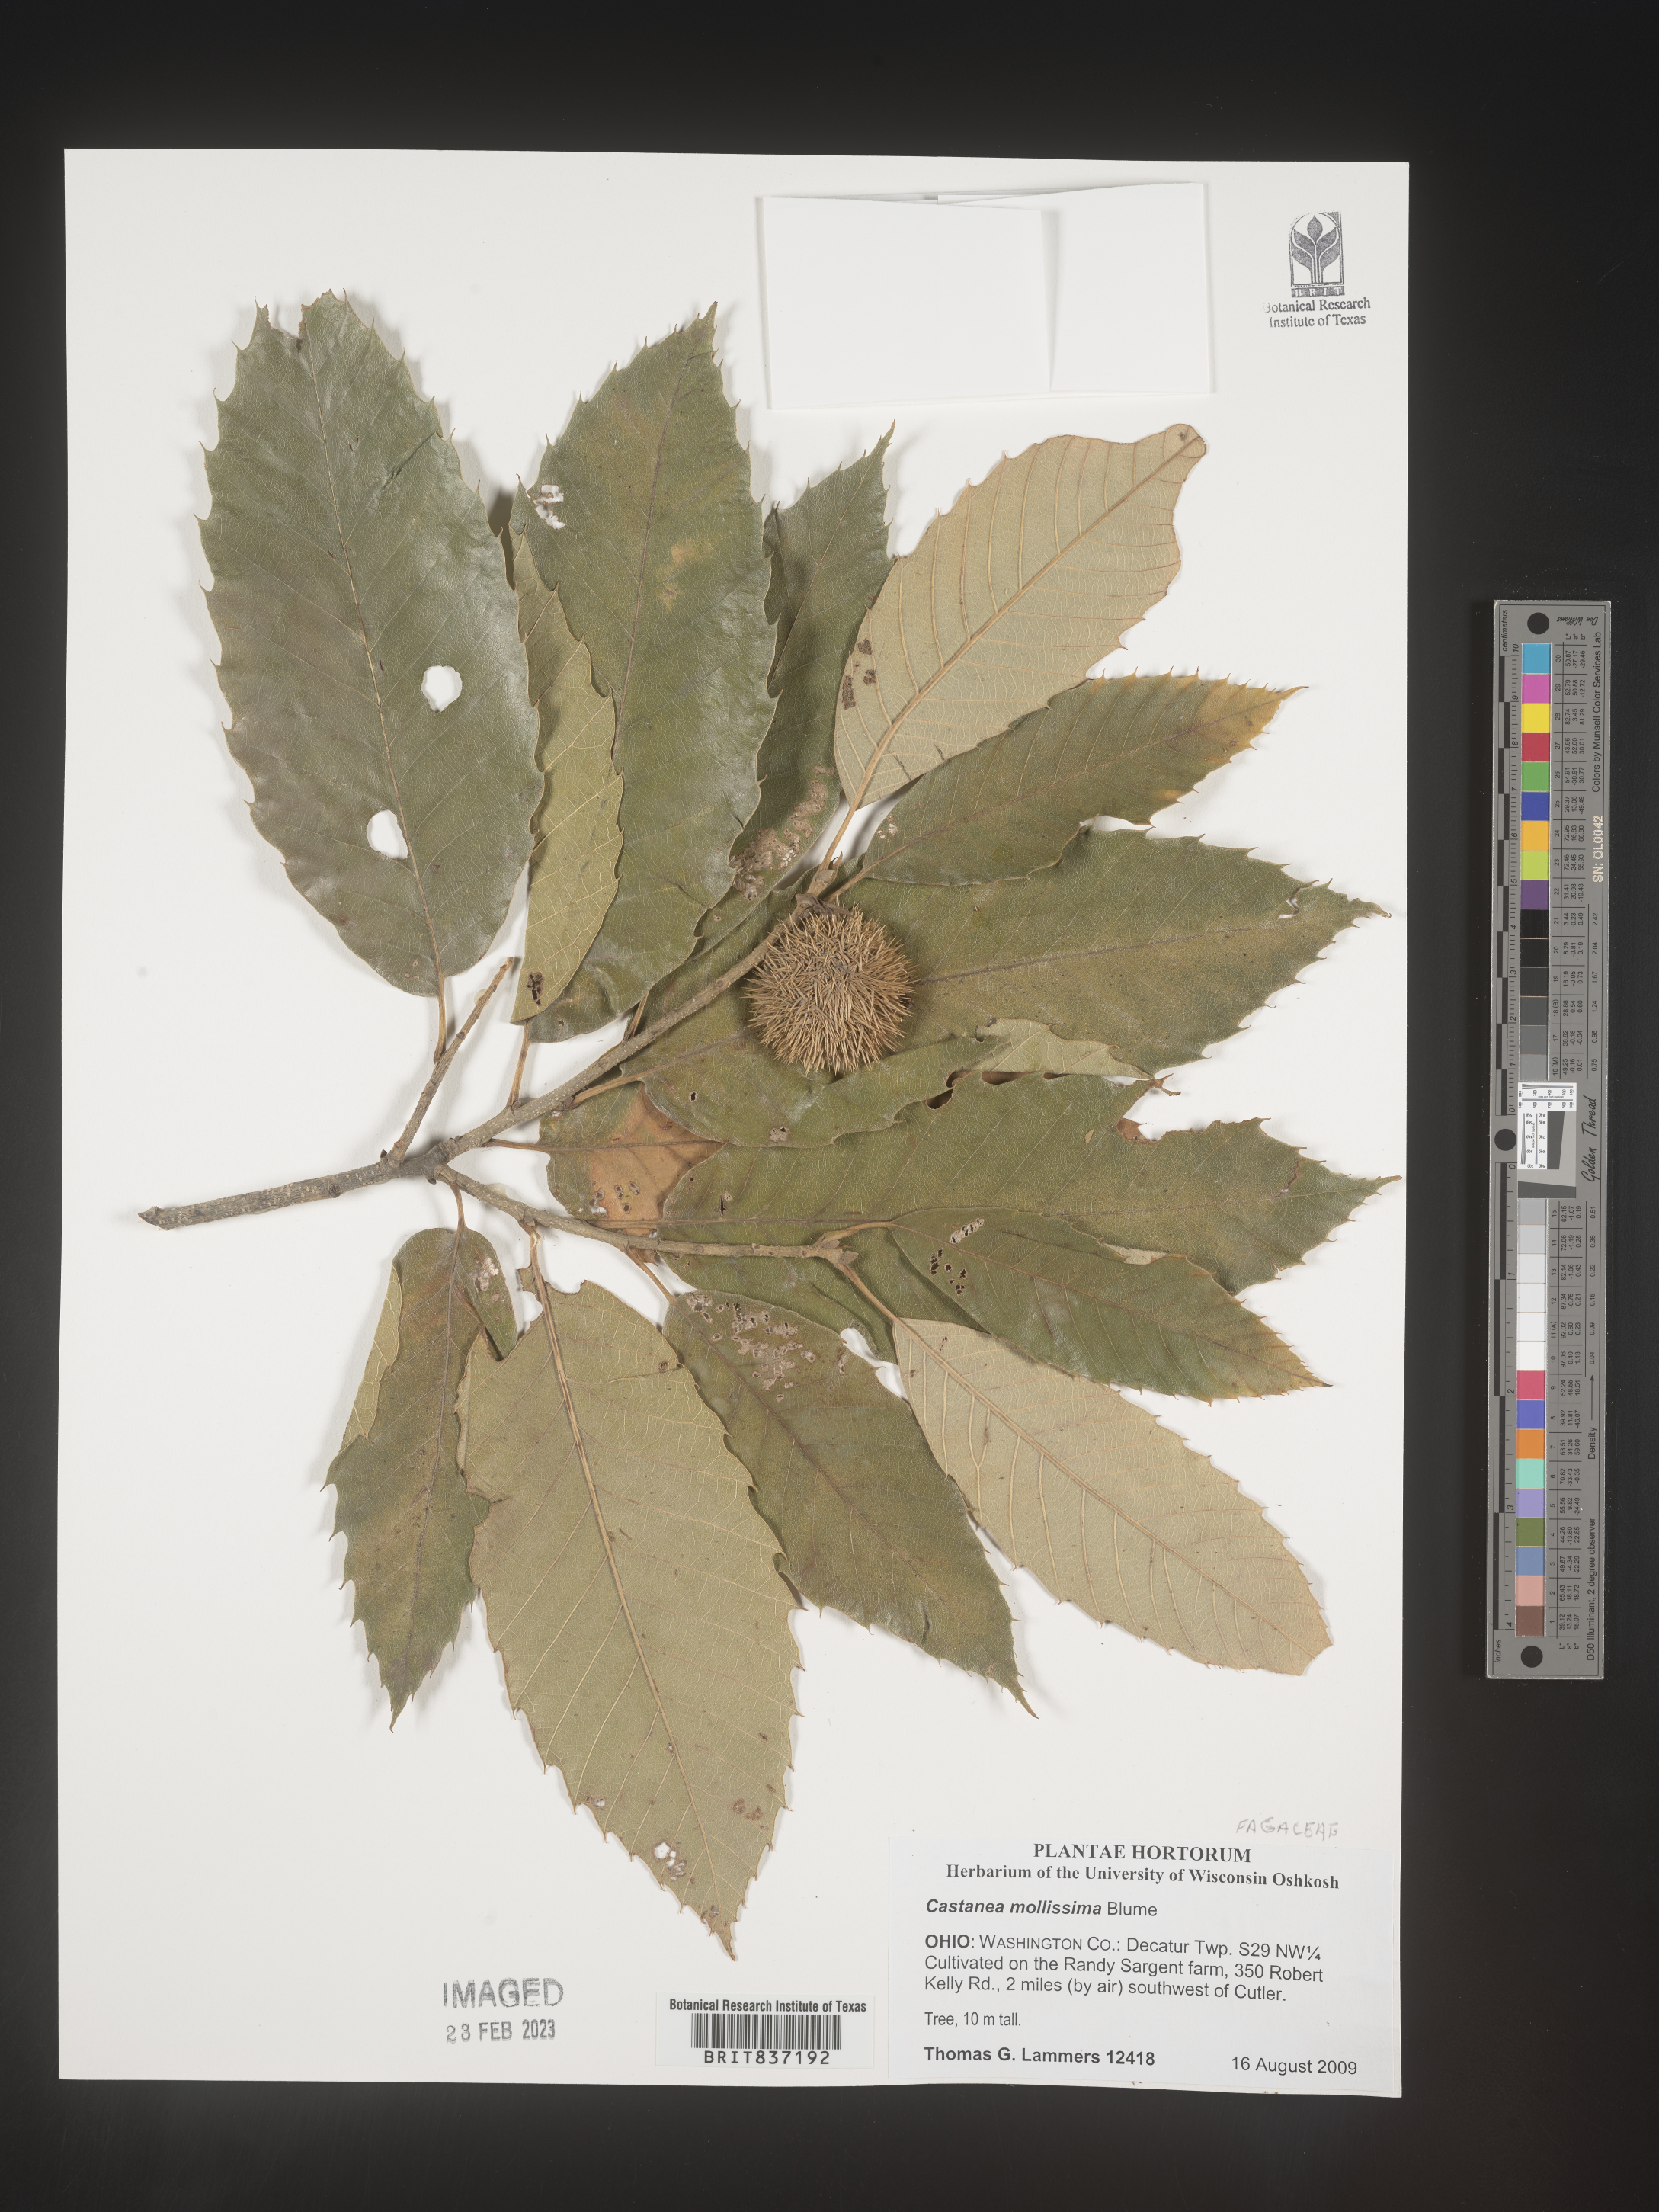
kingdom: Plantae
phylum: Tracheophyta
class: Magnoliopsida
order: Fagales
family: Fagaceae
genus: Castanea
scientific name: Castanea mollissima
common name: Chinese chestnut
